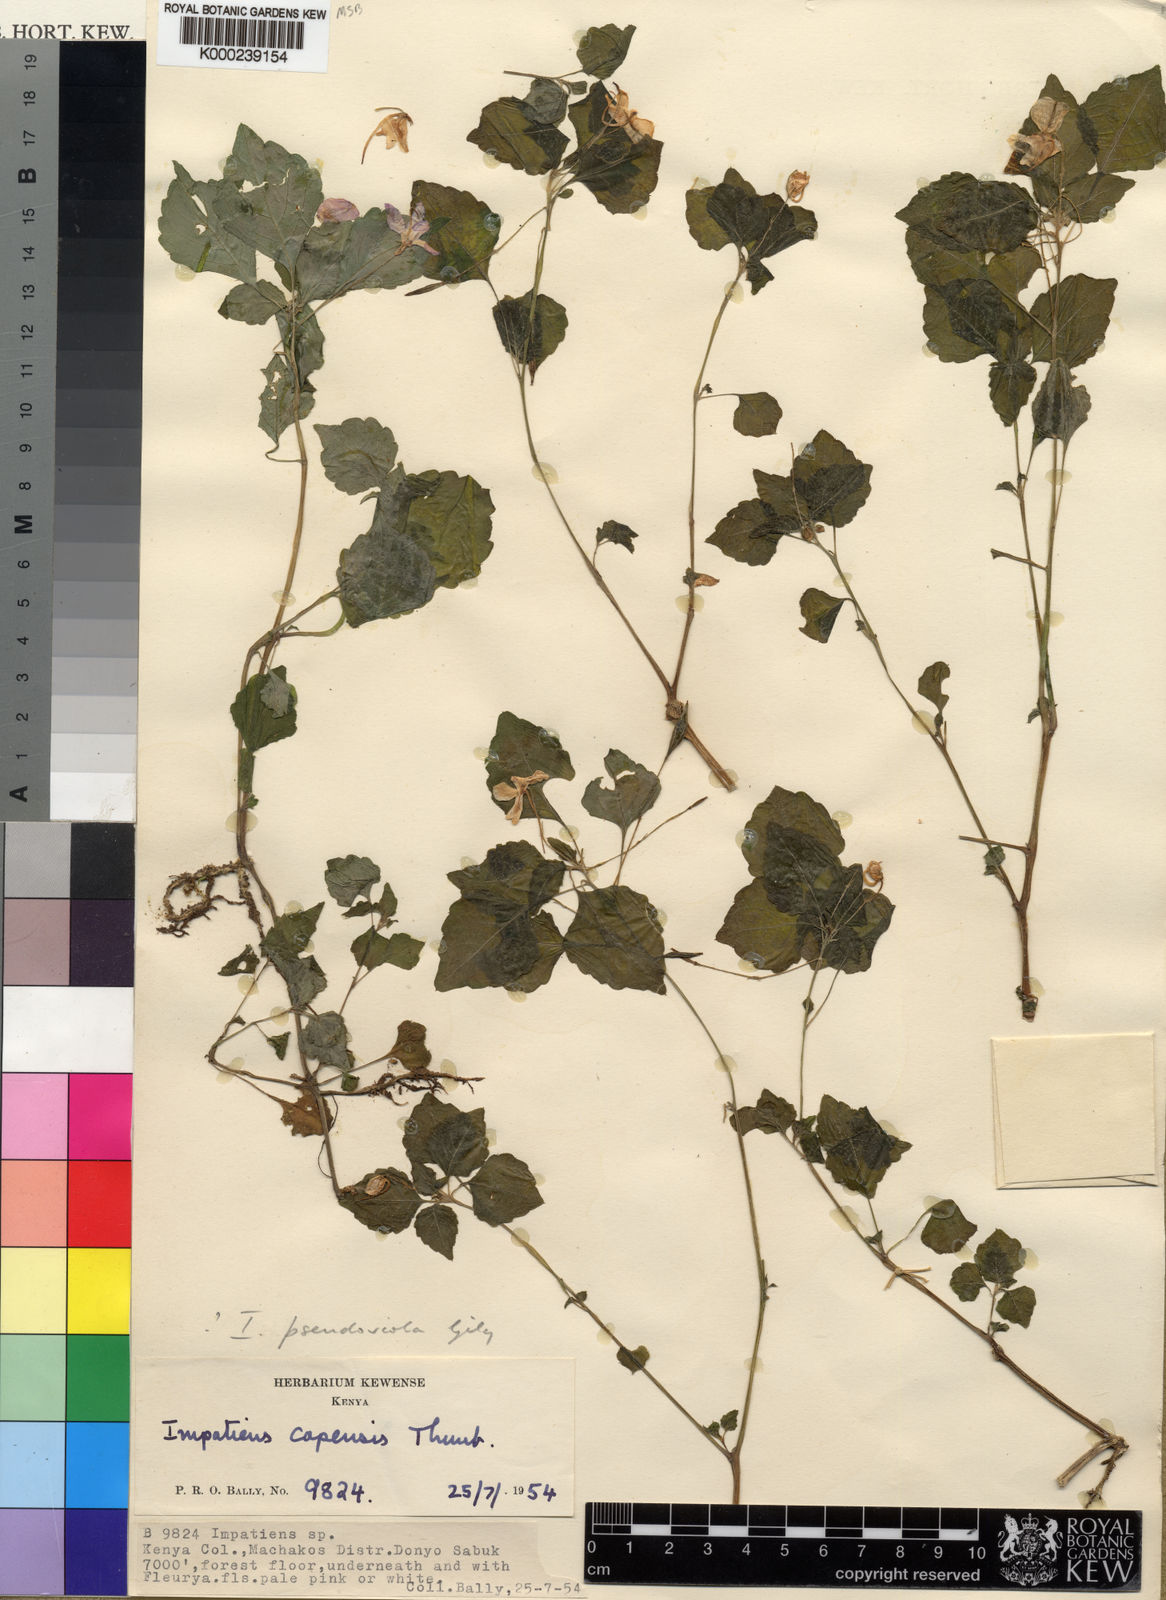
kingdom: Plantae
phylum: Tracheophyta
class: Magnoliopsida
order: Ericales
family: Balsaminaceae
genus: Impatiens
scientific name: Impatiens pseudoviola
